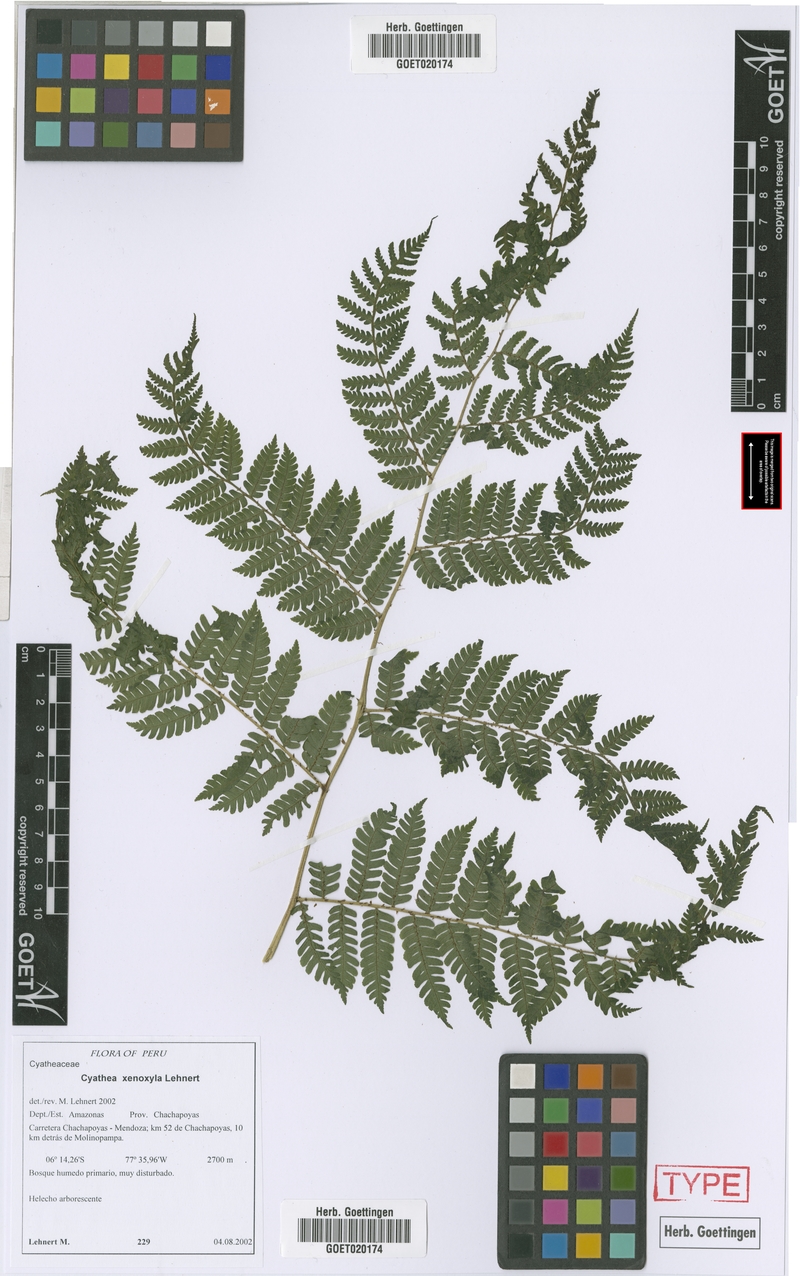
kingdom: Plantae
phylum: Tracheophyta
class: Polypodiopsida
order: Cyatheales
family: Cyatheaceae
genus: Cyathea
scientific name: Cyathea planadae
